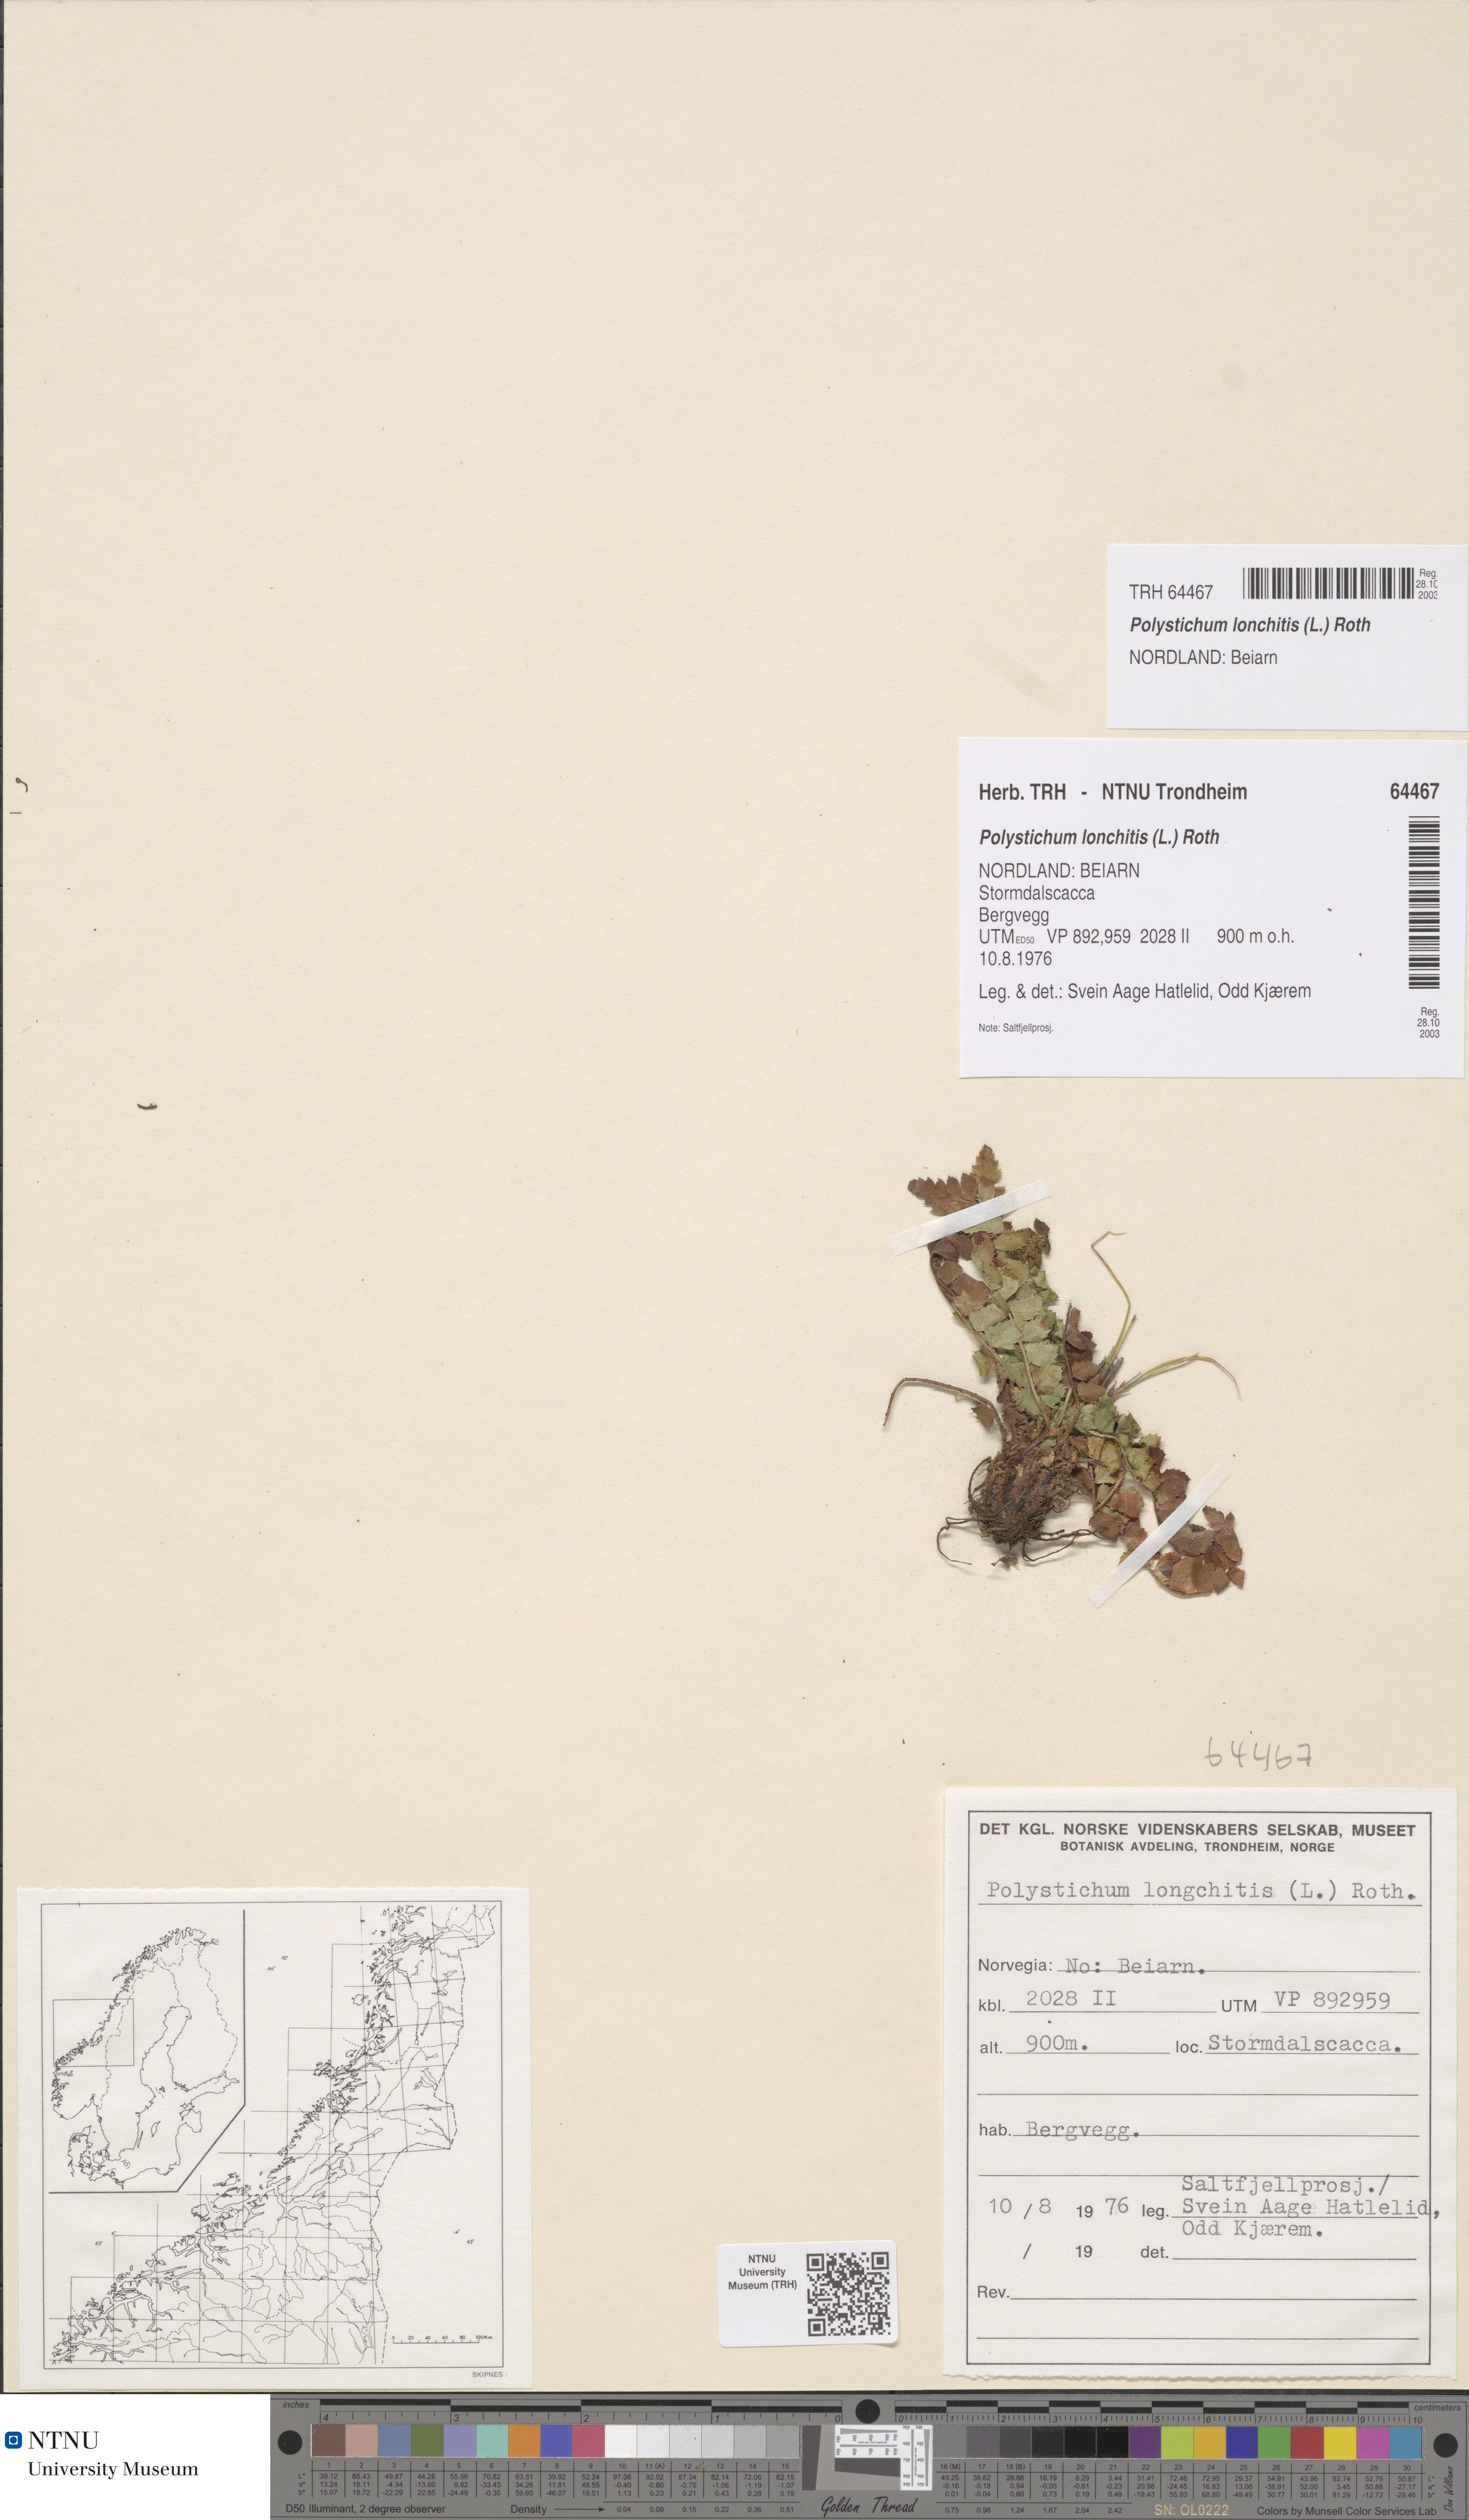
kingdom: Plantae
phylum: Tracheophyta
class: Polypodiopsida
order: Polypodiales
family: Dryopteridaceae
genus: Polystichum
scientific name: Polystichum lonchitis
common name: Holly fern
